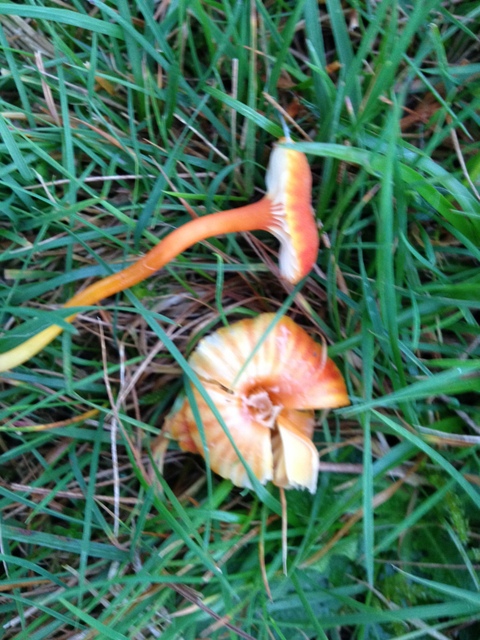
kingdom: Fungi
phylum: Basidiomycota
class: Agaricomycetes
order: Agaricales
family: Hygrophoraceae
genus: Hygrocybe
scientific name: Hygrocybe cantharellus
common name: kantarel-vokshat
